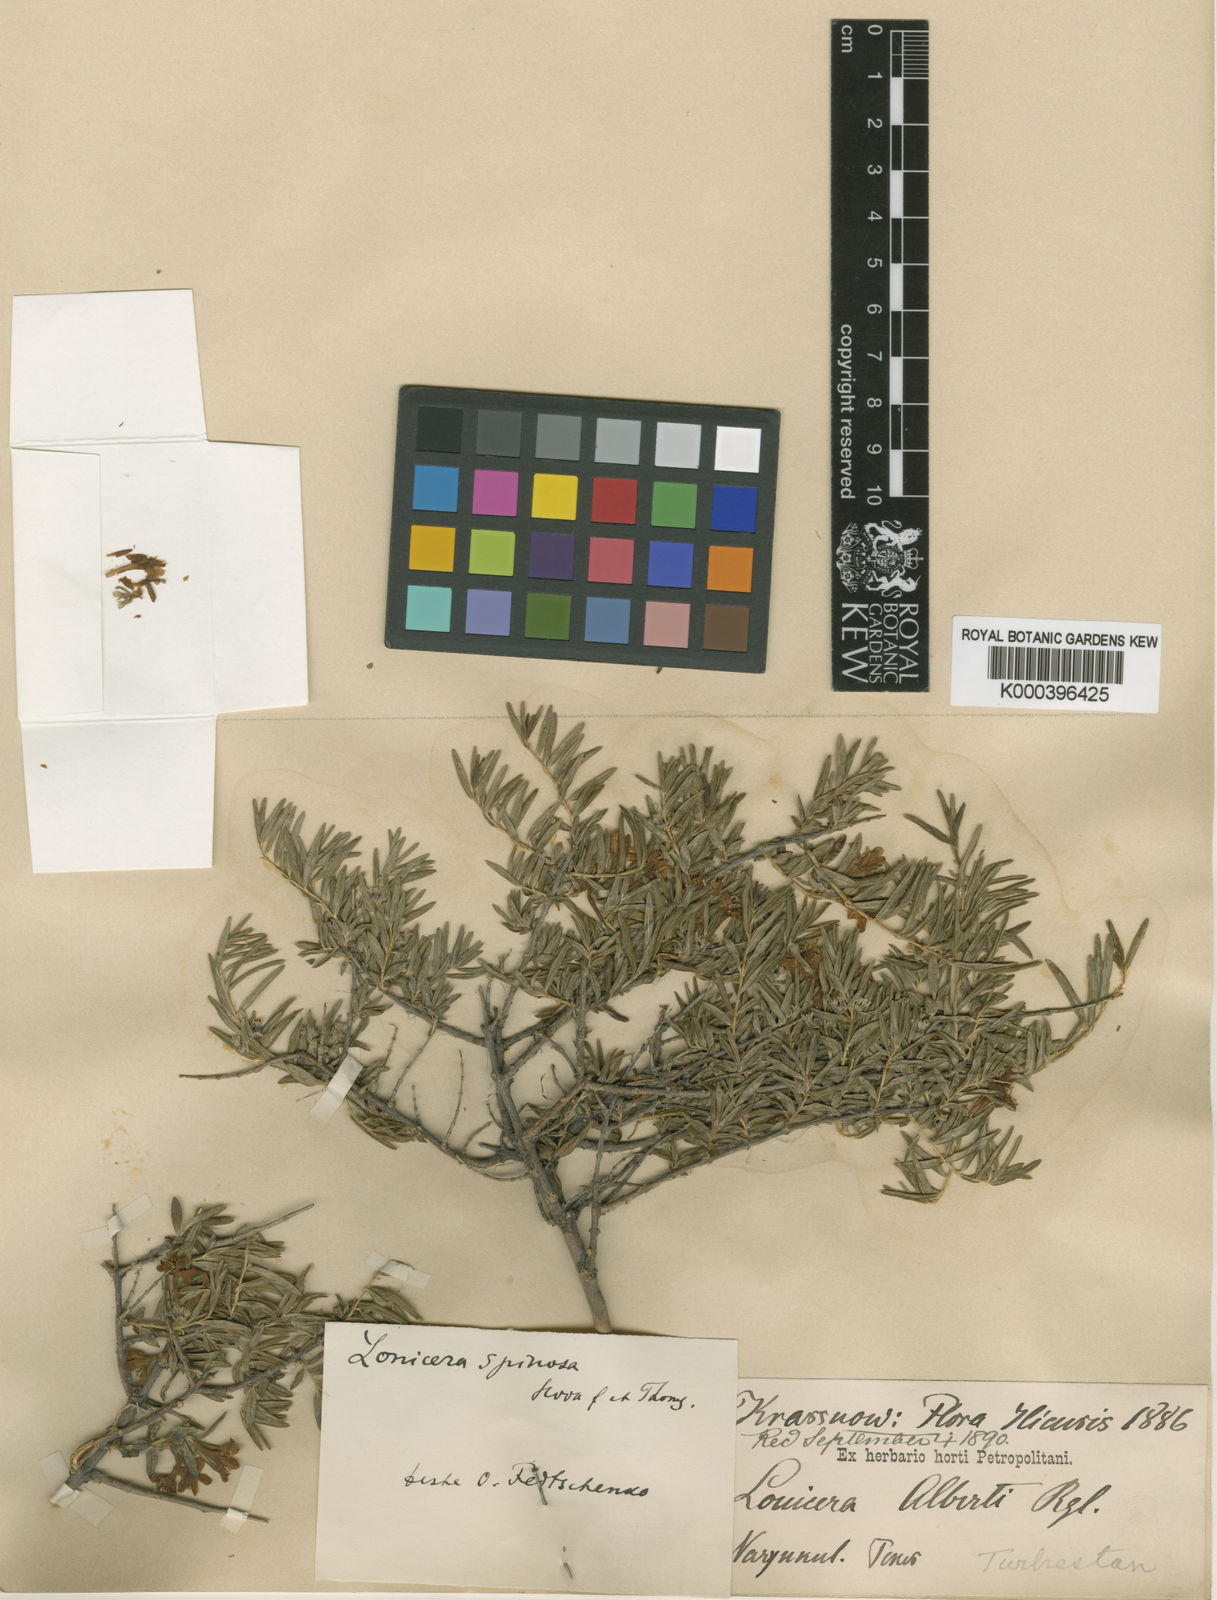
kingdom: Plantae
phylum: Tracheophyta
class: Magnoliopsida
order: Dipsacales
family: Caprifoliaceae
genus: Lonicera
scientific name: Lonicera spinosa
